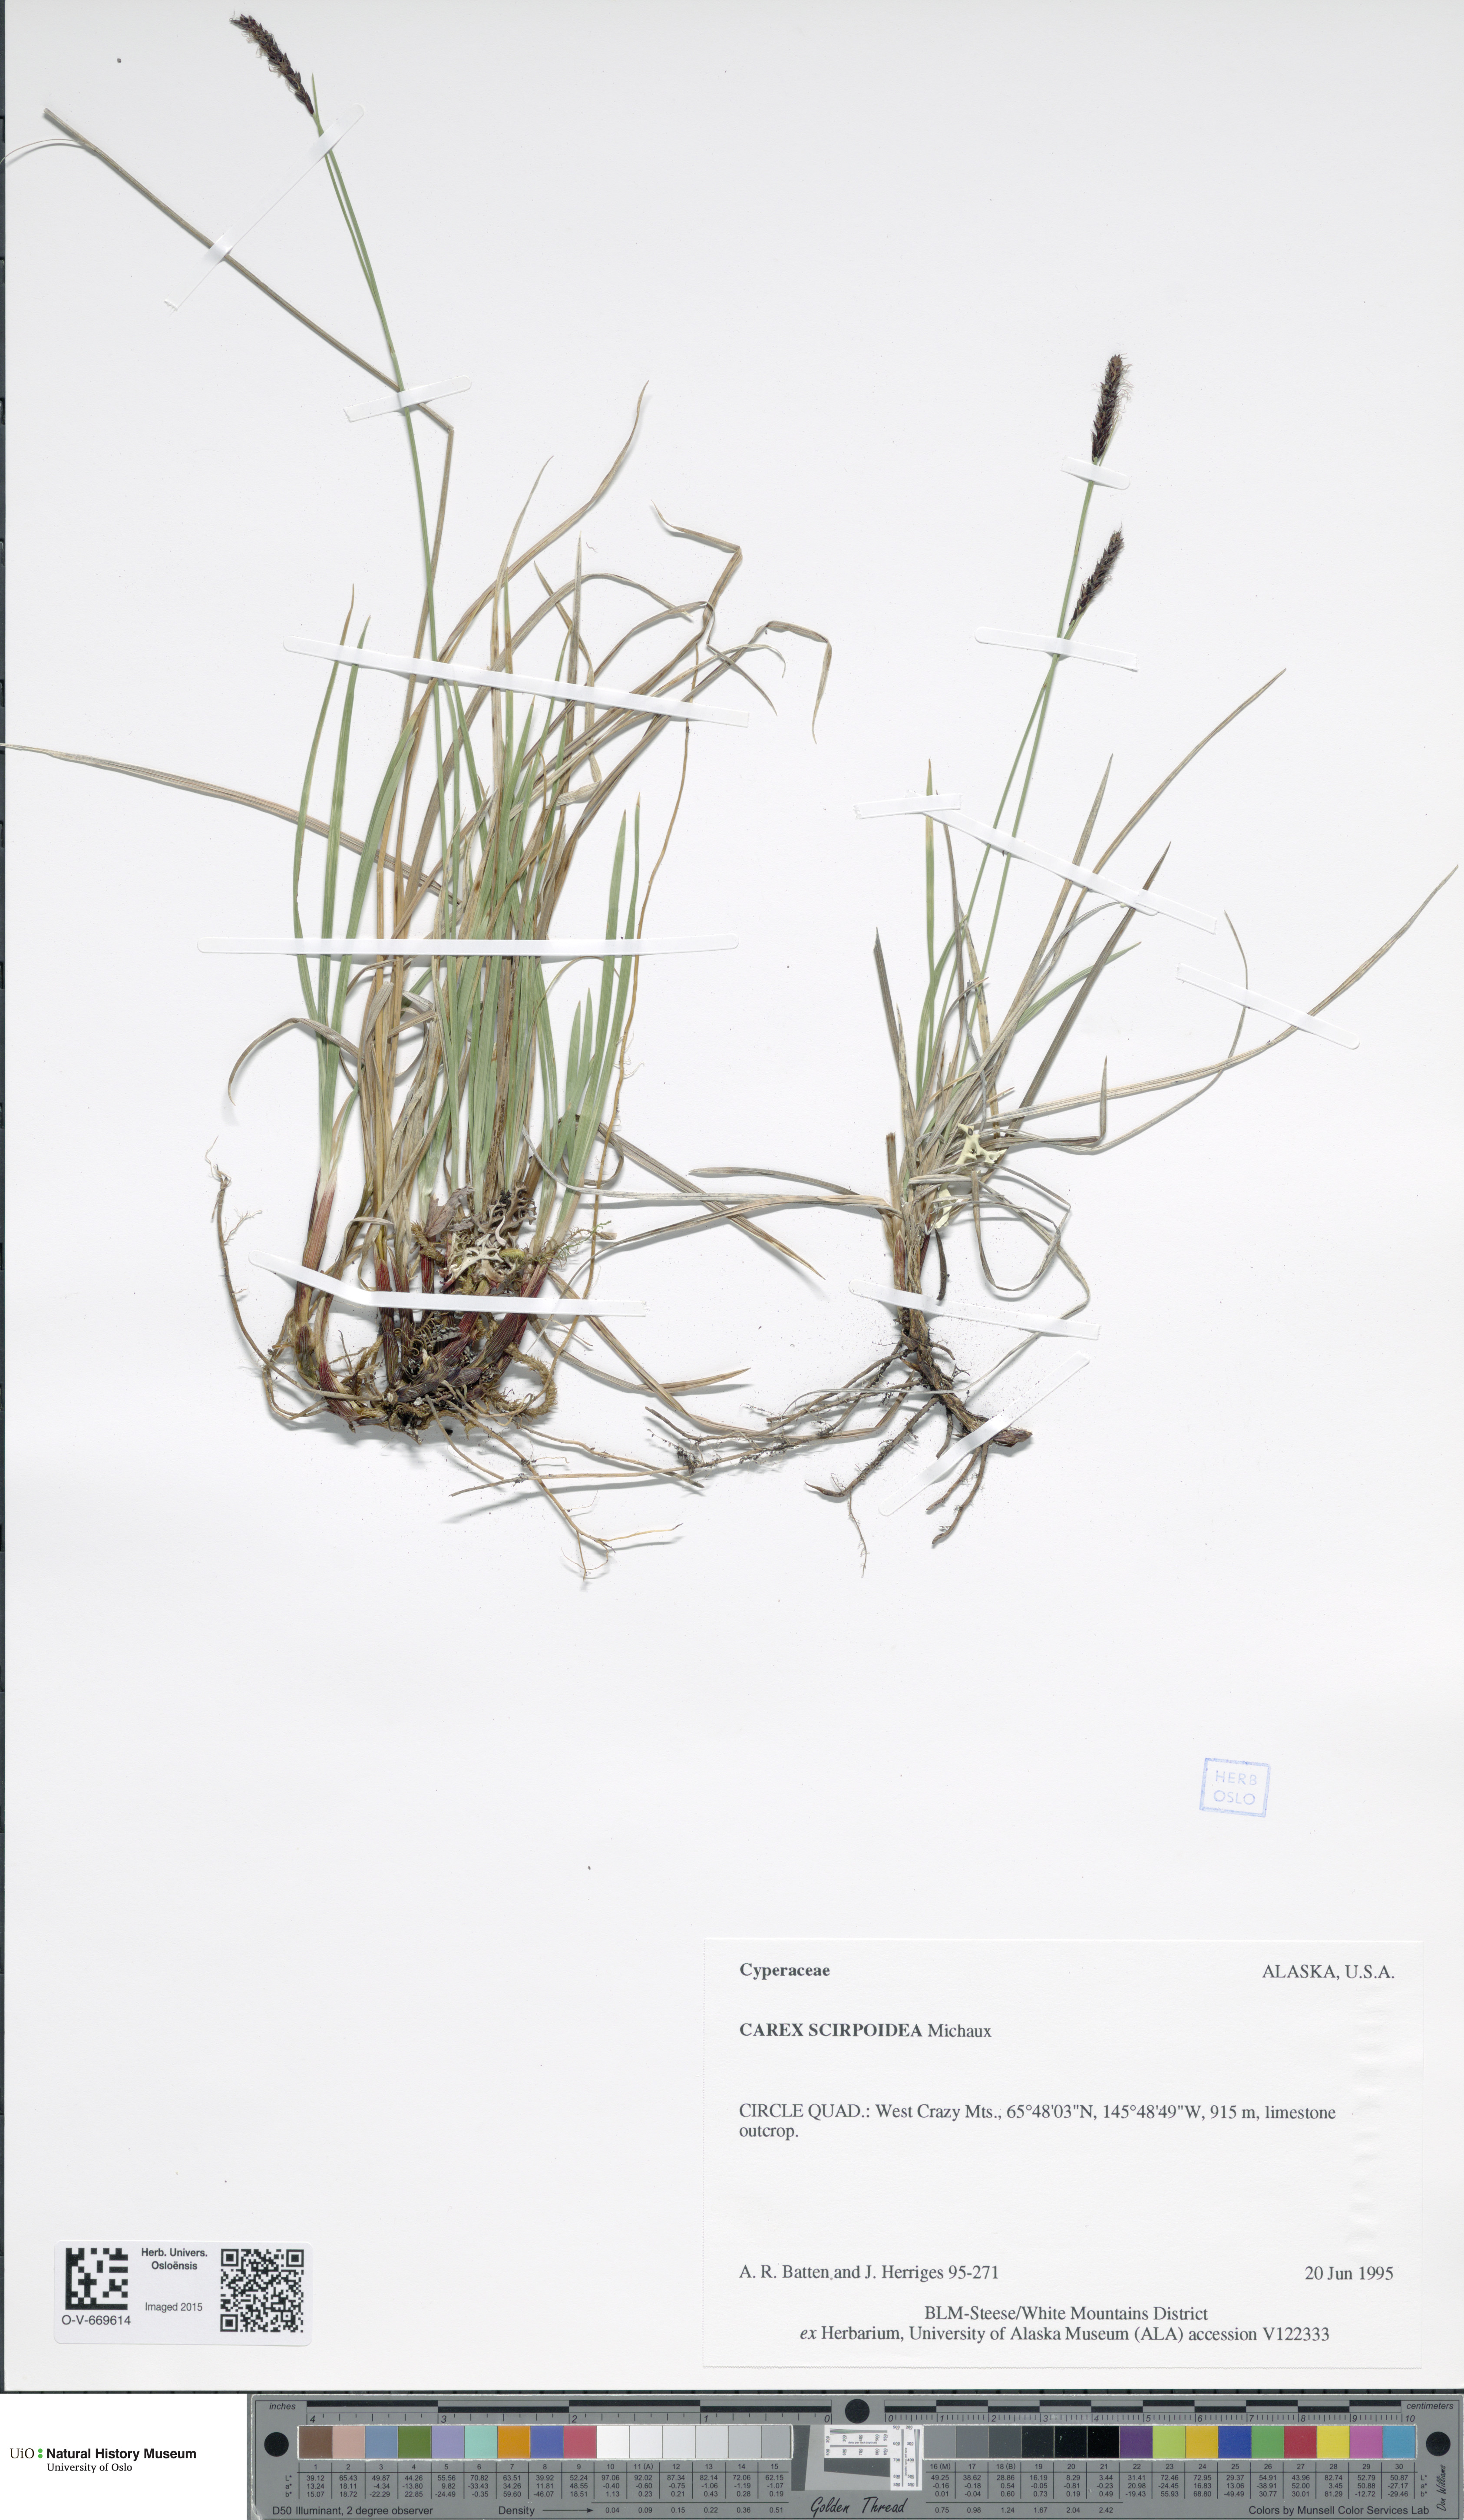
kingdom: Plantae
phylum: Tracheophyta
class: Liliopsida
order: Poales
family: Cyperaceae
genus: Carex
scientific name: Carex scirpoidea
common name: Canada single-spike sedge
